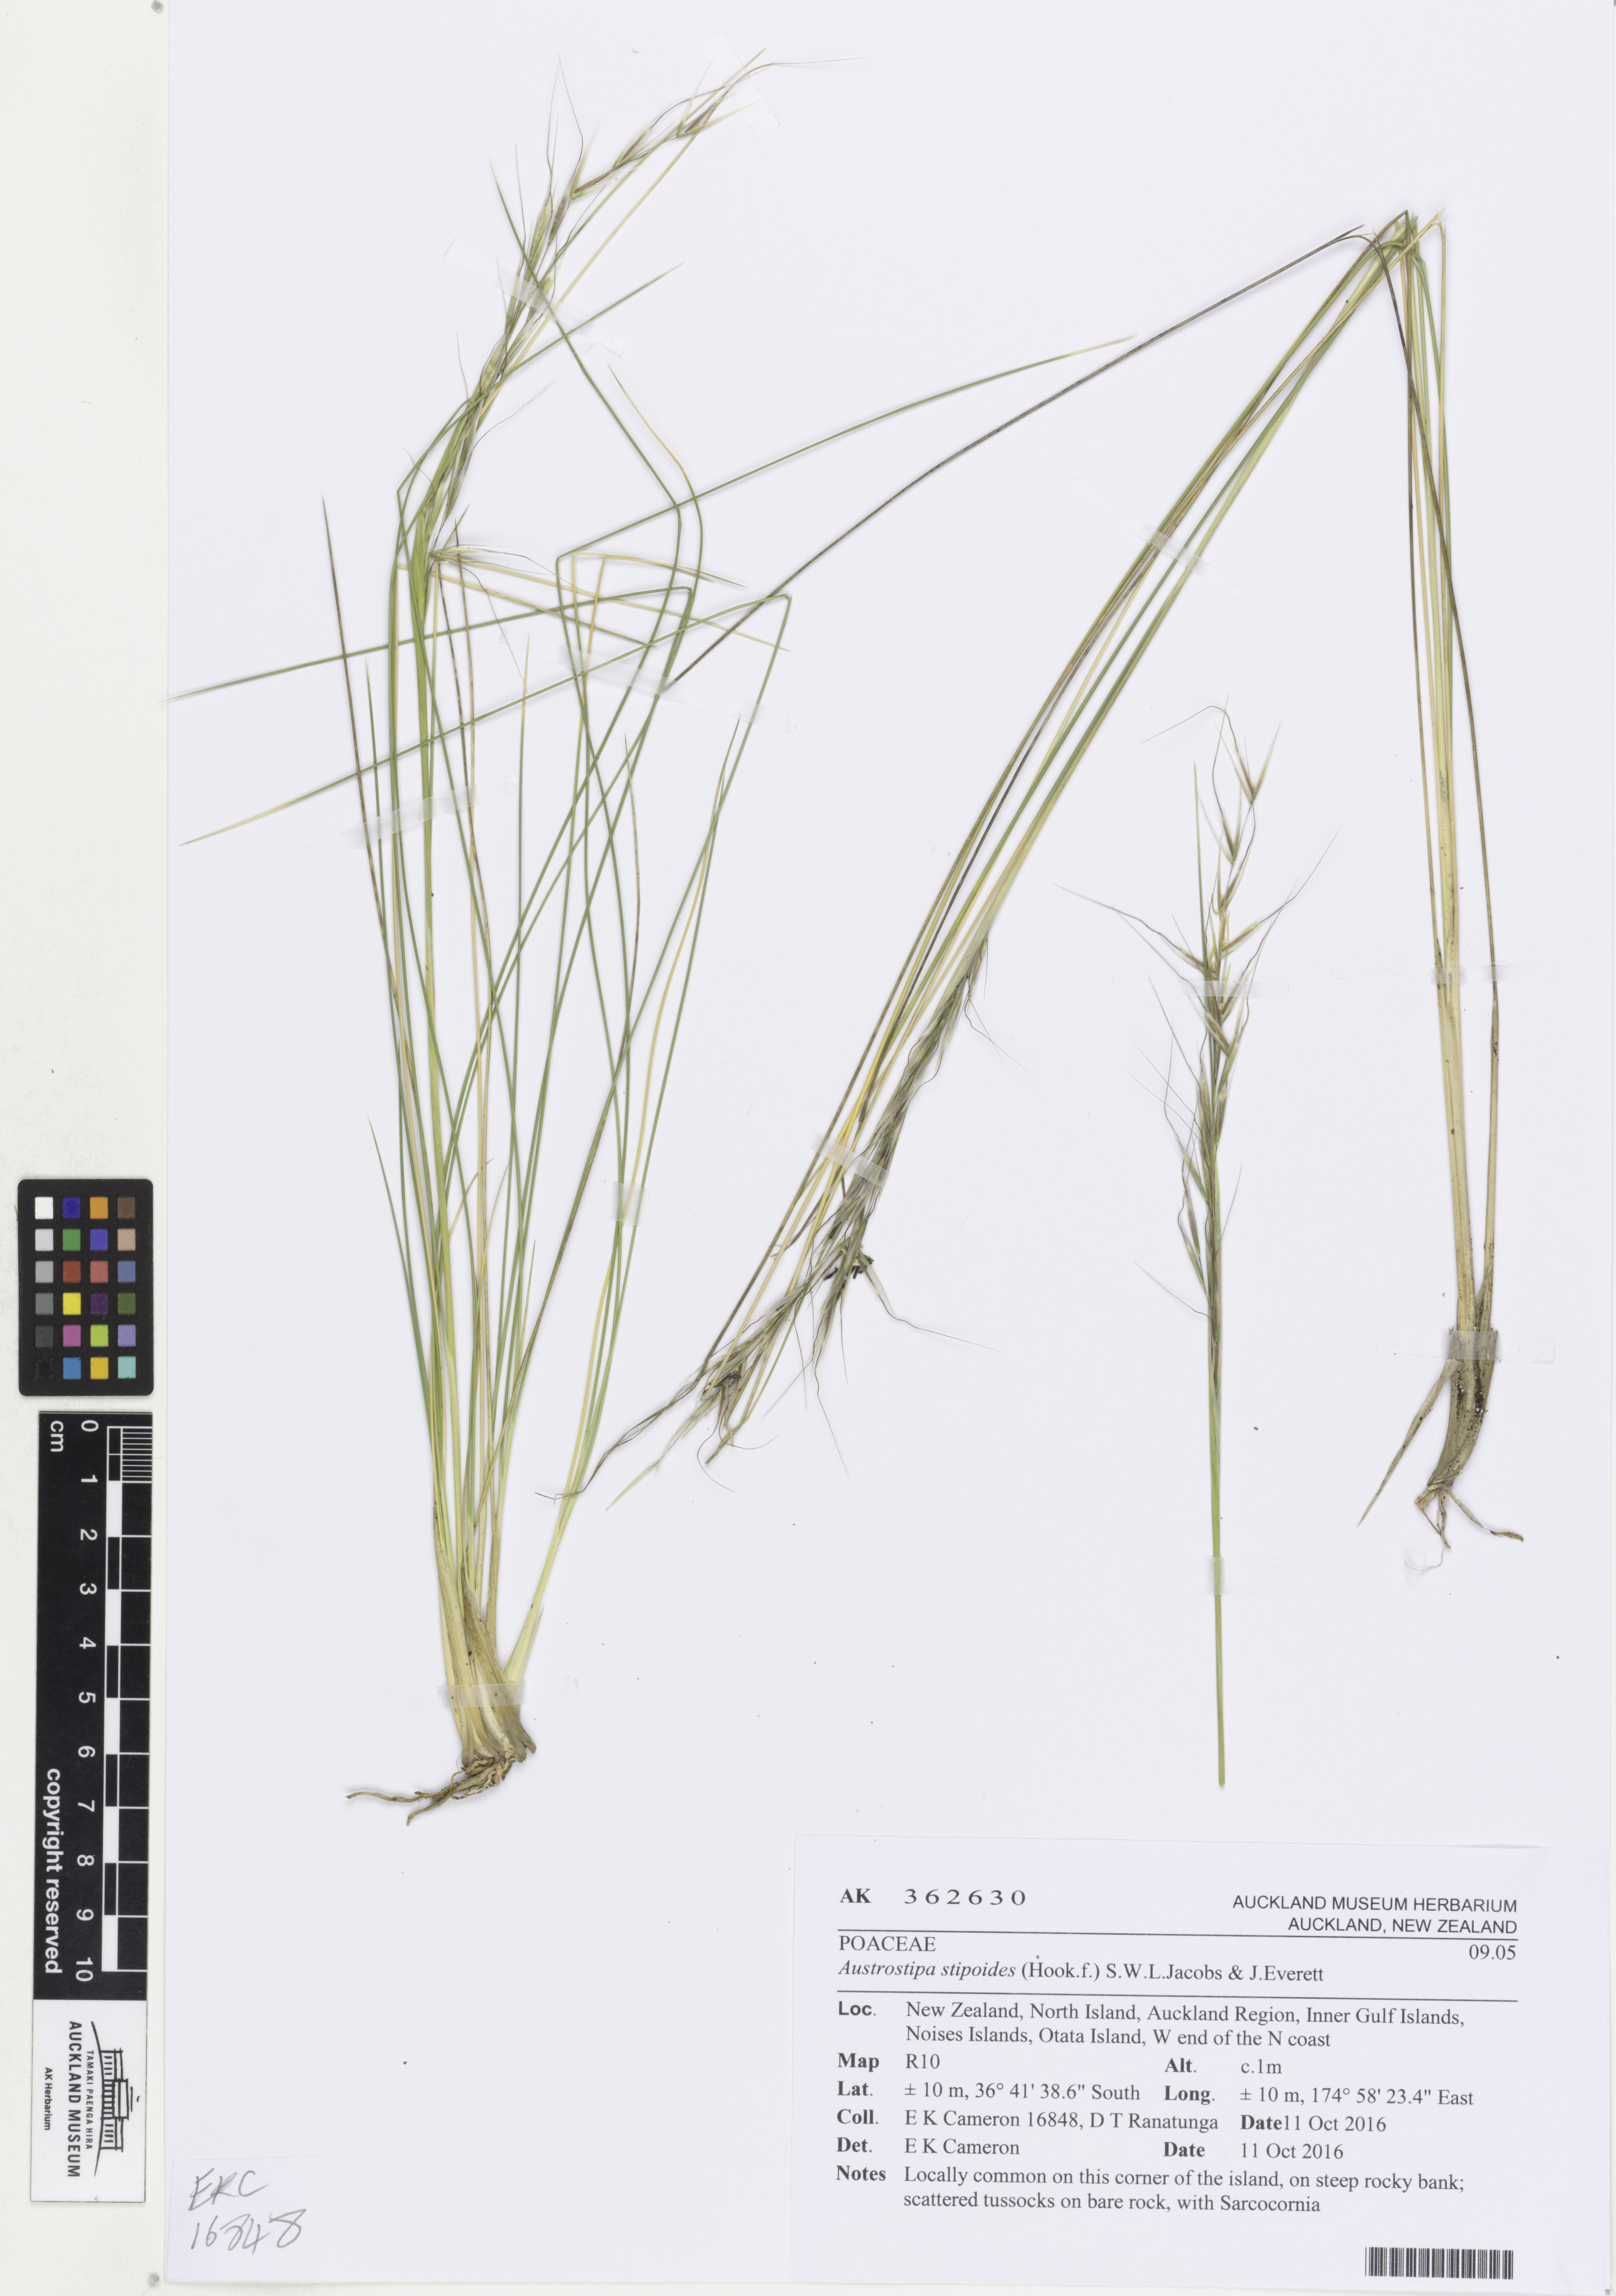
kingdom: Plantae
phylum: Tracheophyta
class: Liliopsida
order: Poales
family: Poaceae
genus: Austrostipa
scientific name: Austrostipa stipoides
